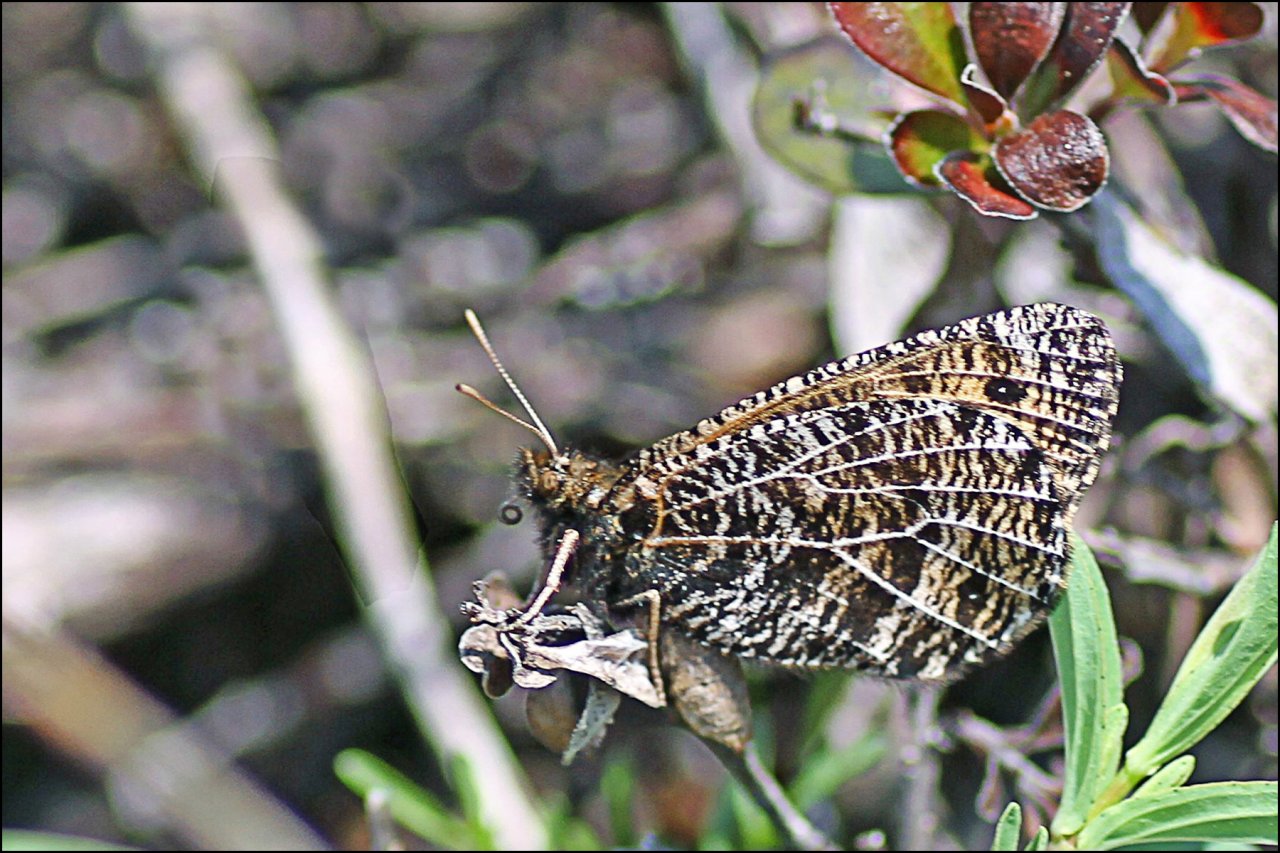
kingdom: Animalia
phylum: Arthropoda
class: Insecta
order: Lepidoptera
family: Nymphalidae
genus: Oeneis
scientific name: Oeneis chryxus
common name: Chryxus Arctic
